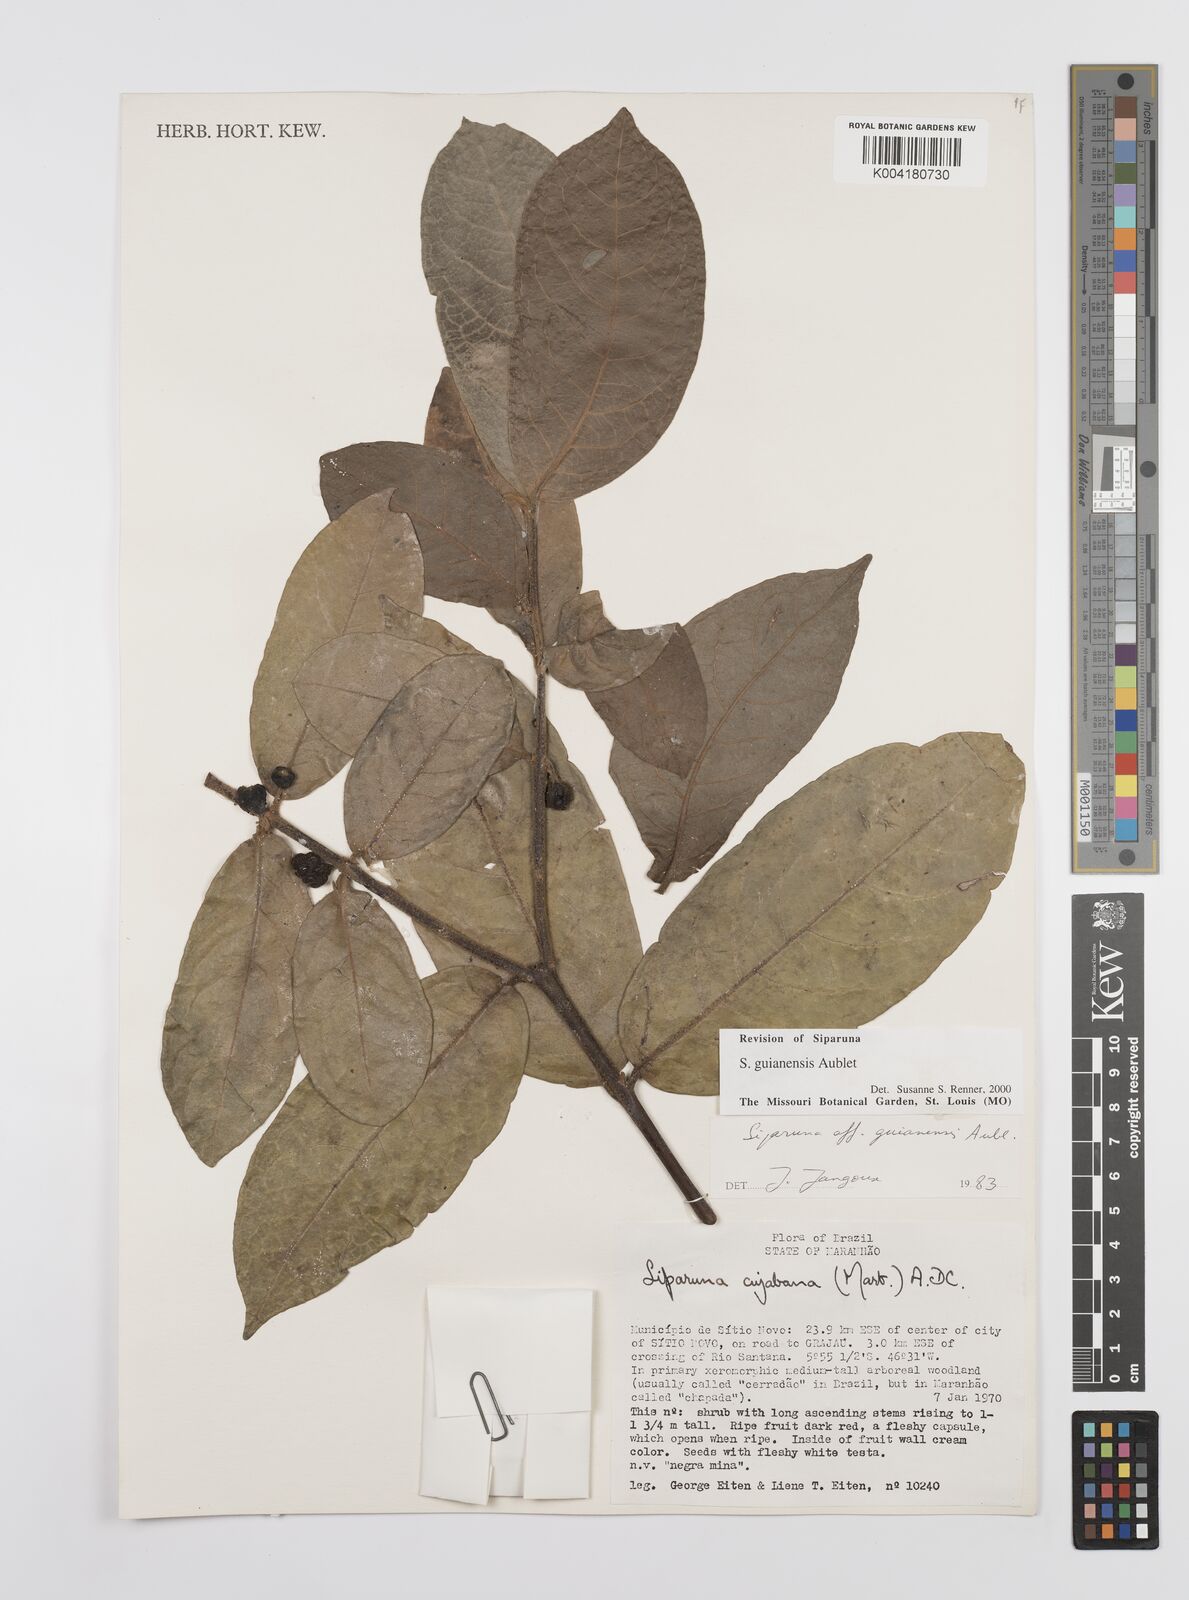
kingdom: Plantae
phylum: Tracheophyta
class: Magnoliopsida
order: Laurales
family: Siparunaceae
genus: Siparuna
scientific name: Siparuna guianensis
